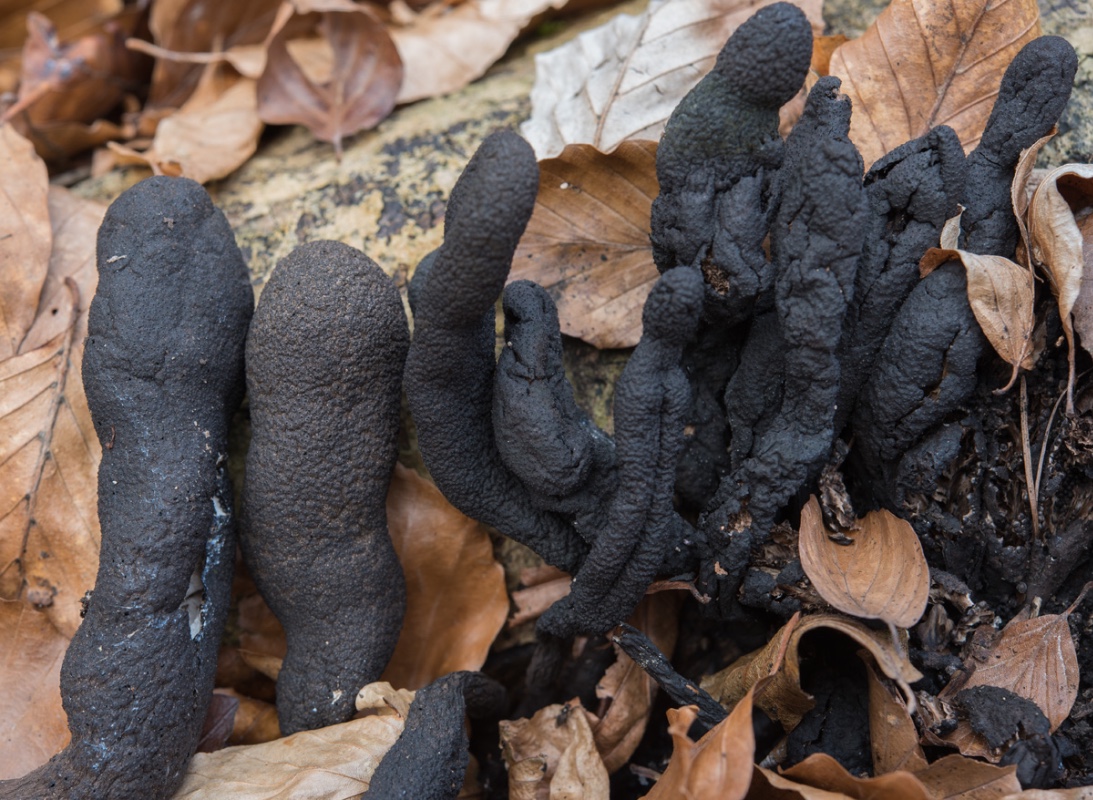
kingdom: Fungi
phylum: Ascomycota
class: Sordariomycetes
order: Xylariales
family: Xylariaceae
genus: Xylaria
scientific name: Xylaria polymorpha
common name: kølle-stødsvamp
